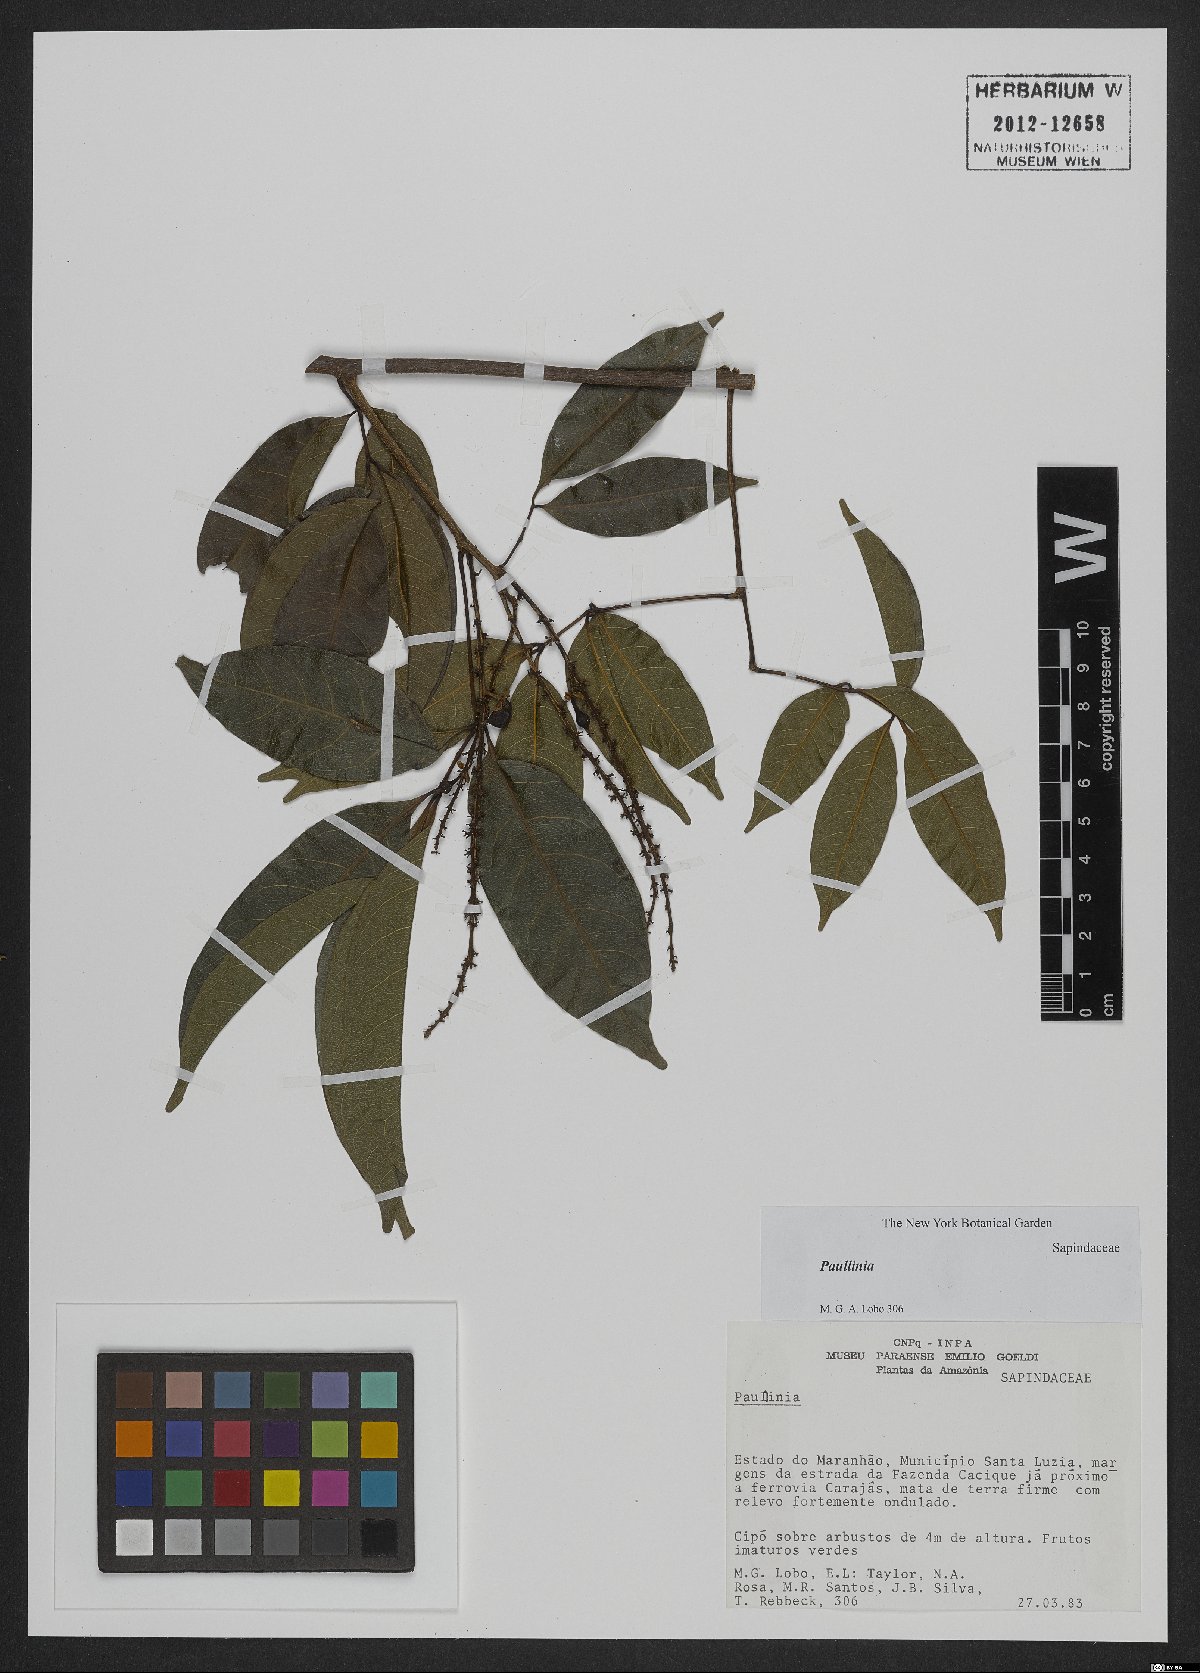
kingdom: Plantae
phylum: Tracheophyta
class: Magnoliopsida
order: Sapindales
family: Sapindaceae
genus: Paullinia
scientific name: Paullinia
